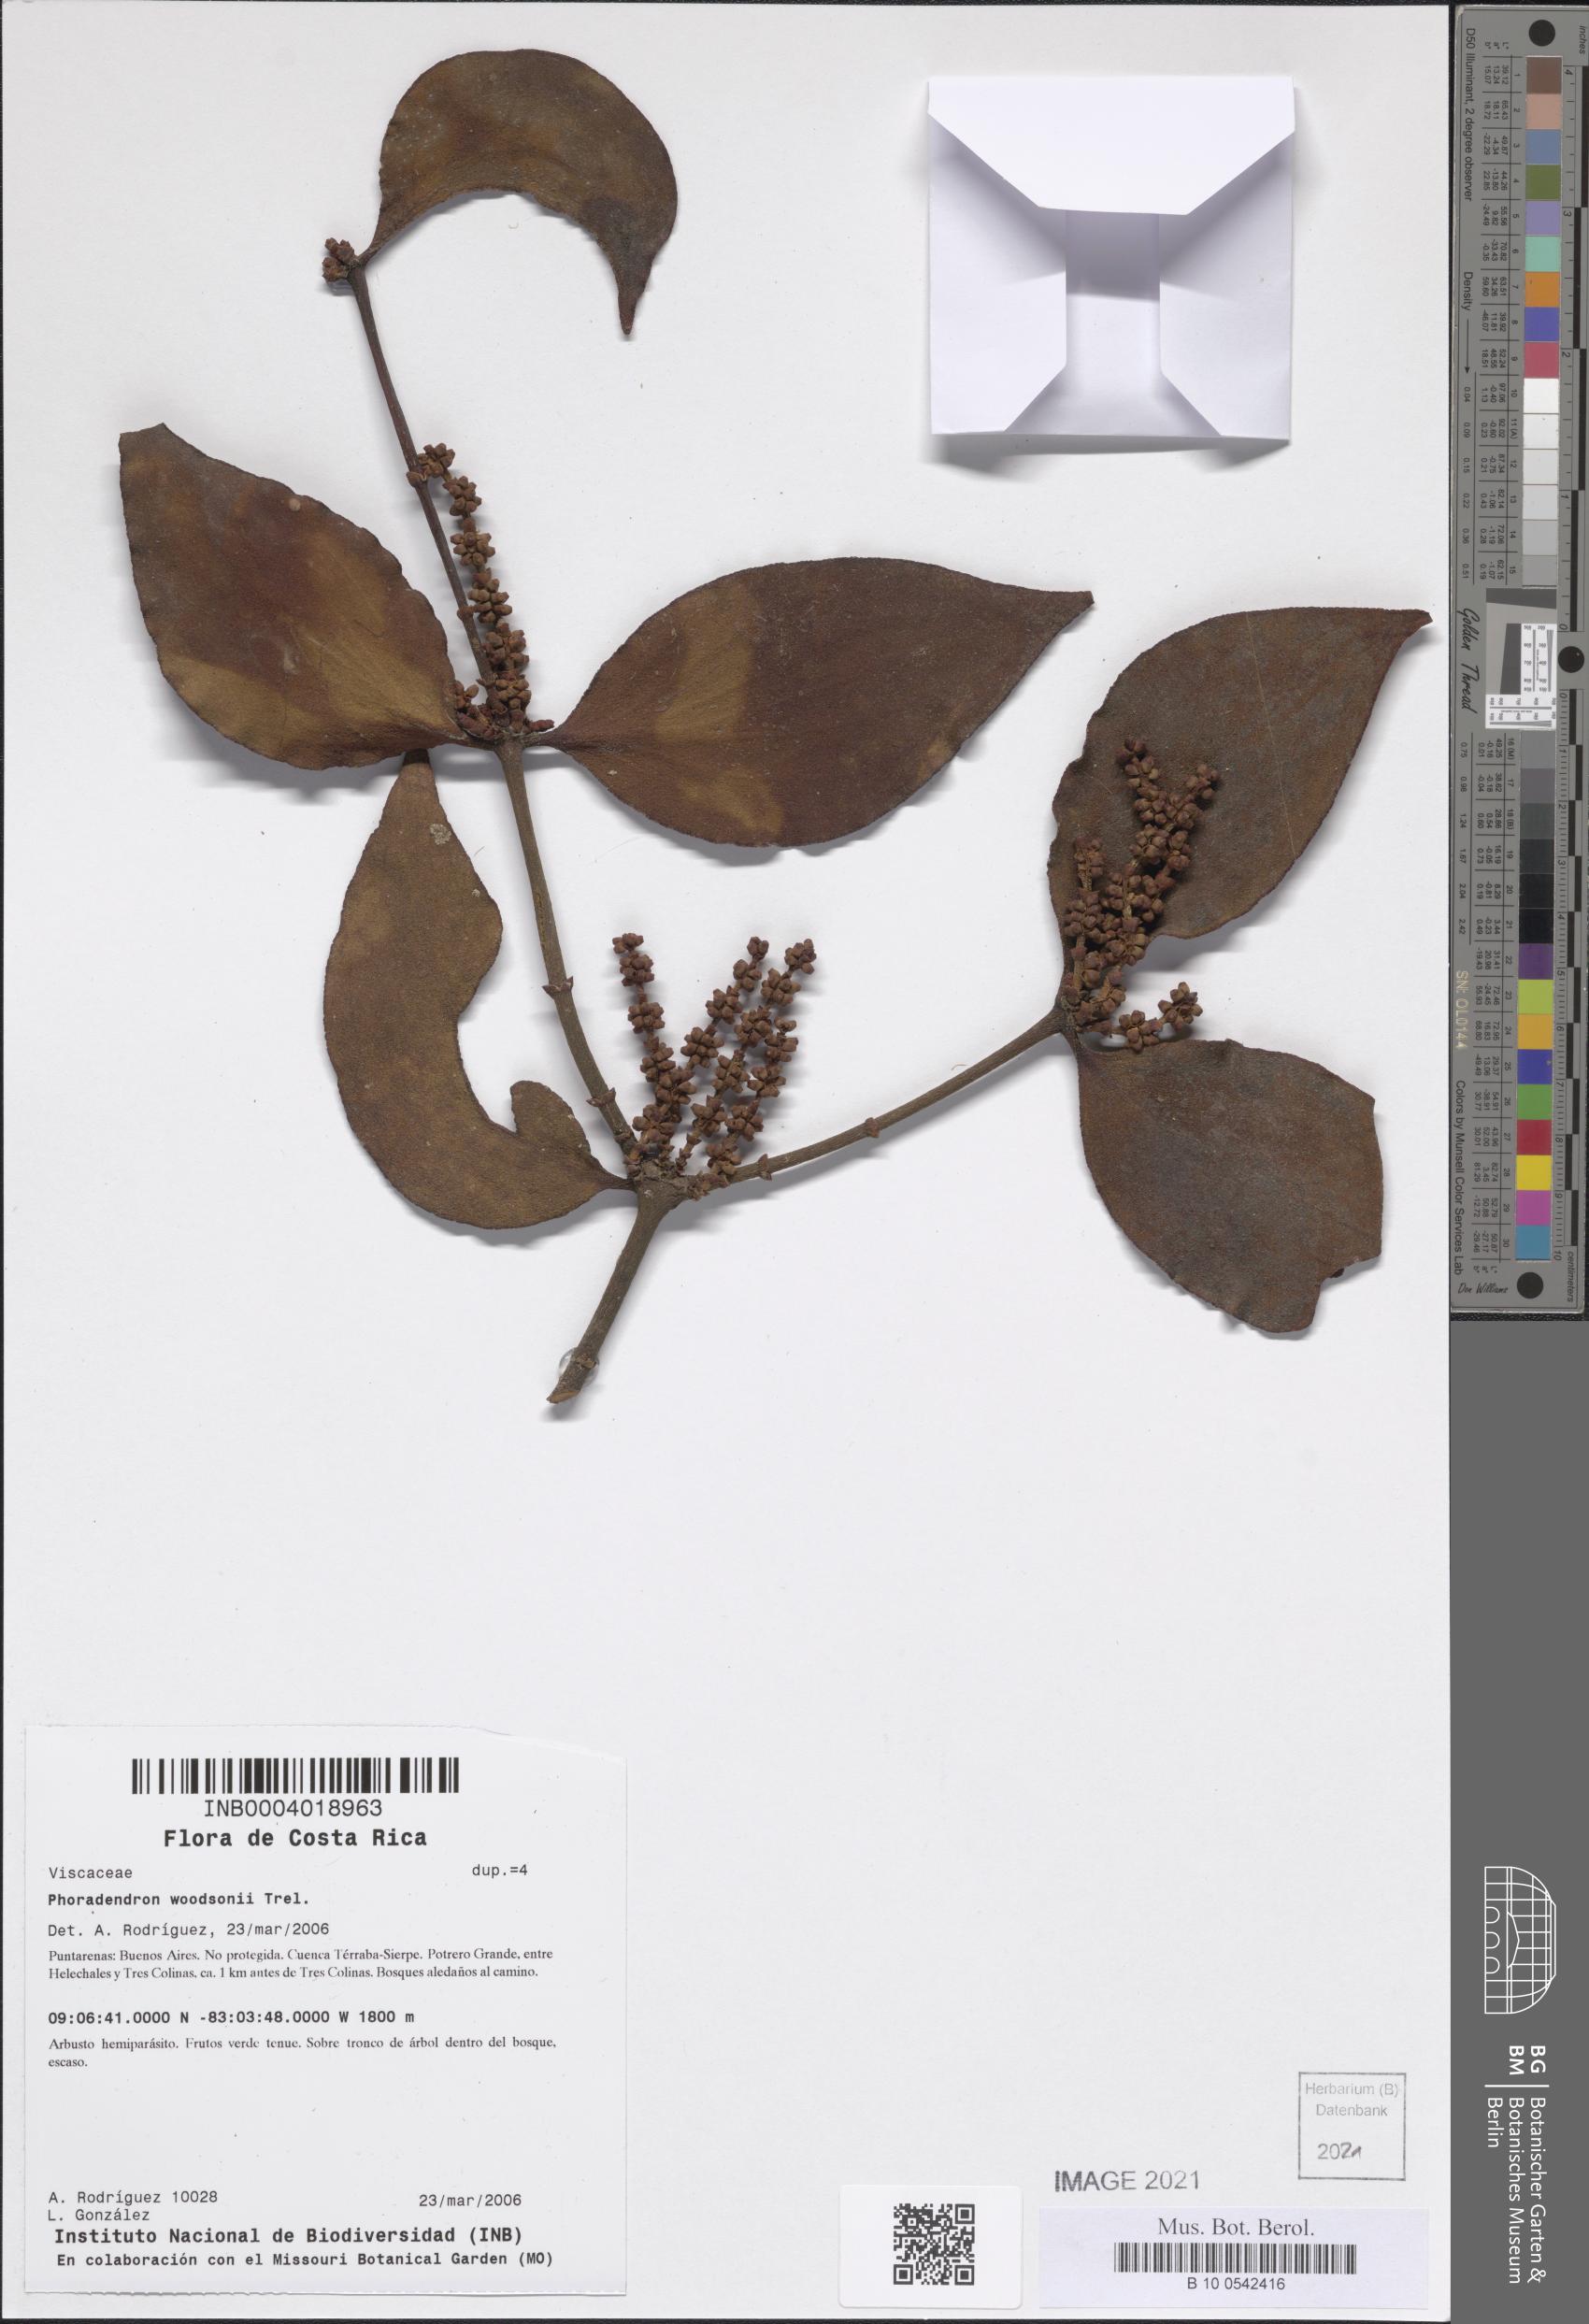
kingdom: Plantae
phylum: Tracheophyta
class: Magnoliopsida
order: Santalales
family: Viscaceae
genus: Phoradendron
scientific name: Phoradendron woodsonii
